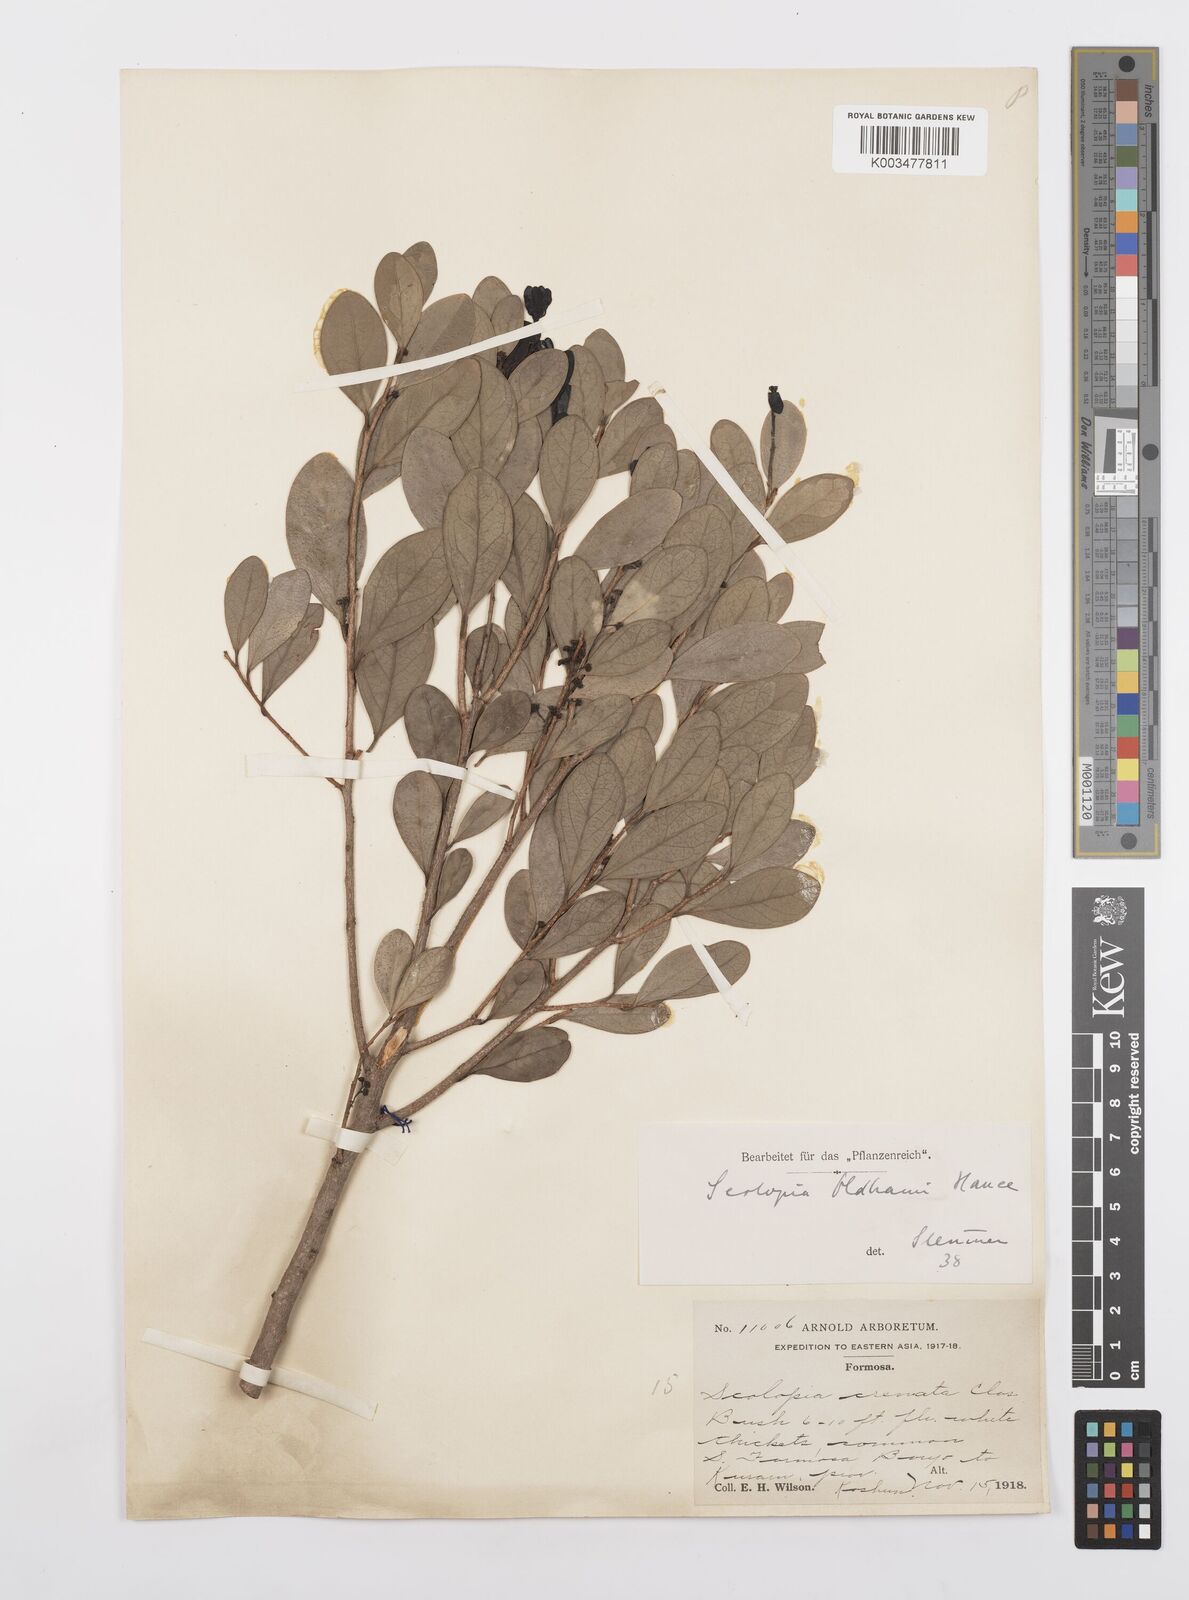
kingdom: Plantae
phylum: Tracheophyta
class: Magnoliopsida
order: Malpighiales
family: Salicaceae
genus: Scolopia
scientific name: Scolopia oldhamii
